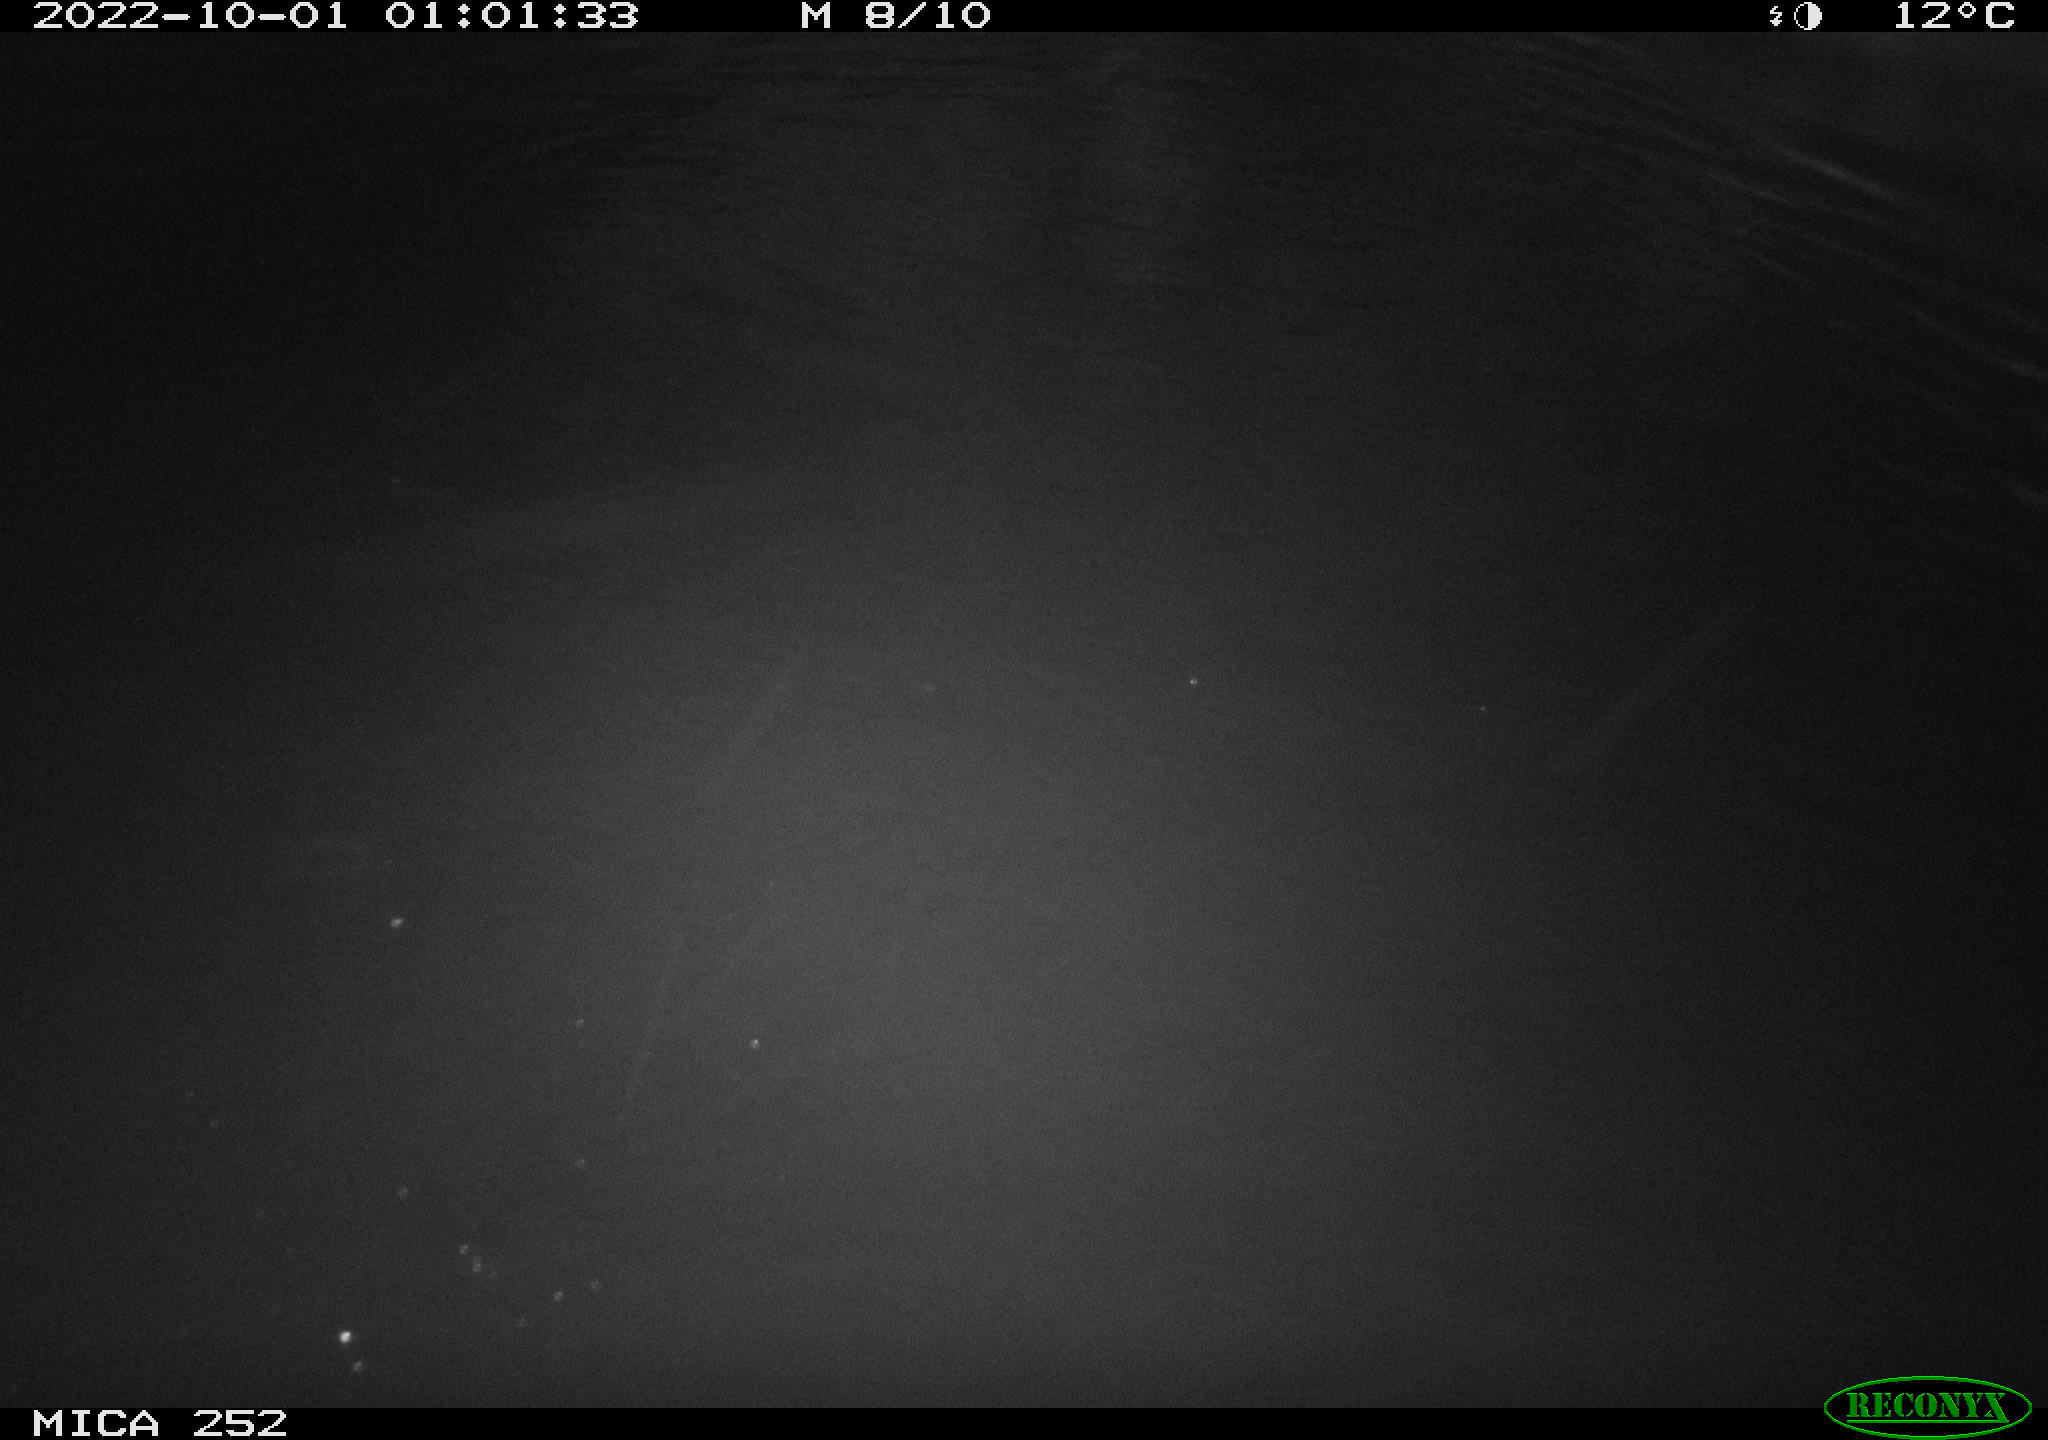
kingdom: Animalia
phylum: Chordata
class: Mammalia
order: Rodentia
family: Castoridae
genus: Castor
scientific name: Castor fiber
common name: Eurasian beaver
